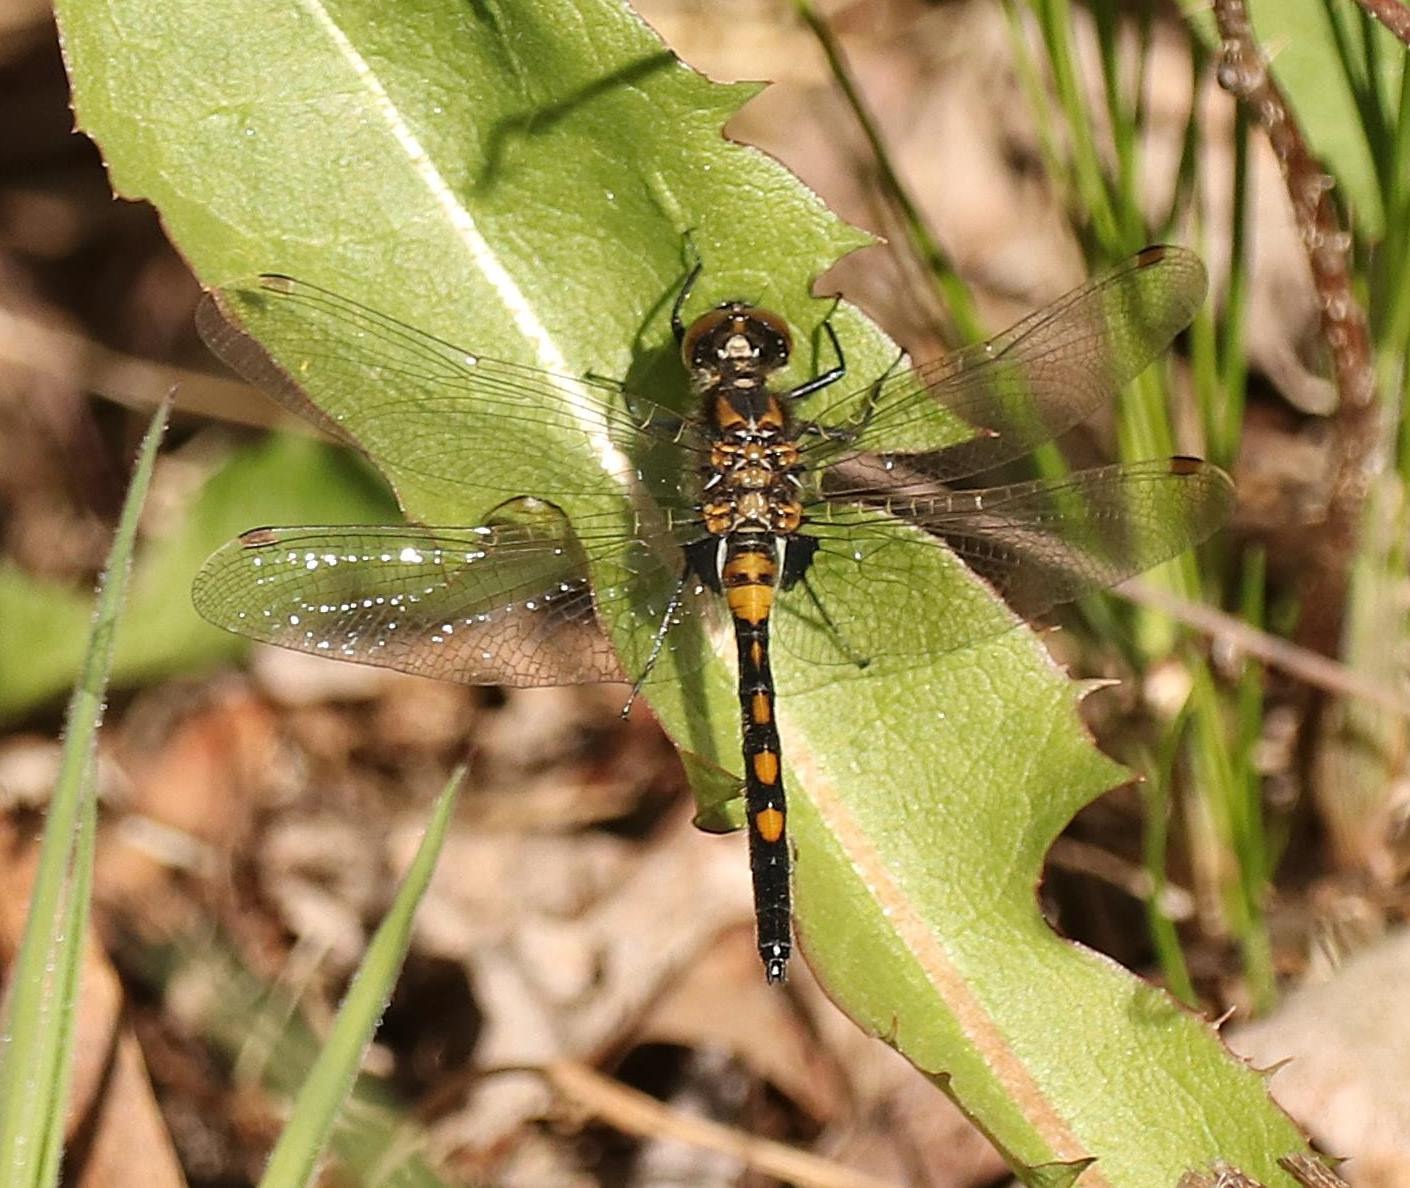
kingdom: Animalia
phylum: Arthropoda
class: Insecta
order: Odonata
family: Libellulidae
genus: Leucorrhinia
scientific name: Leucorrhinia rubicunda
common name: Nordisk kærguldsmed
